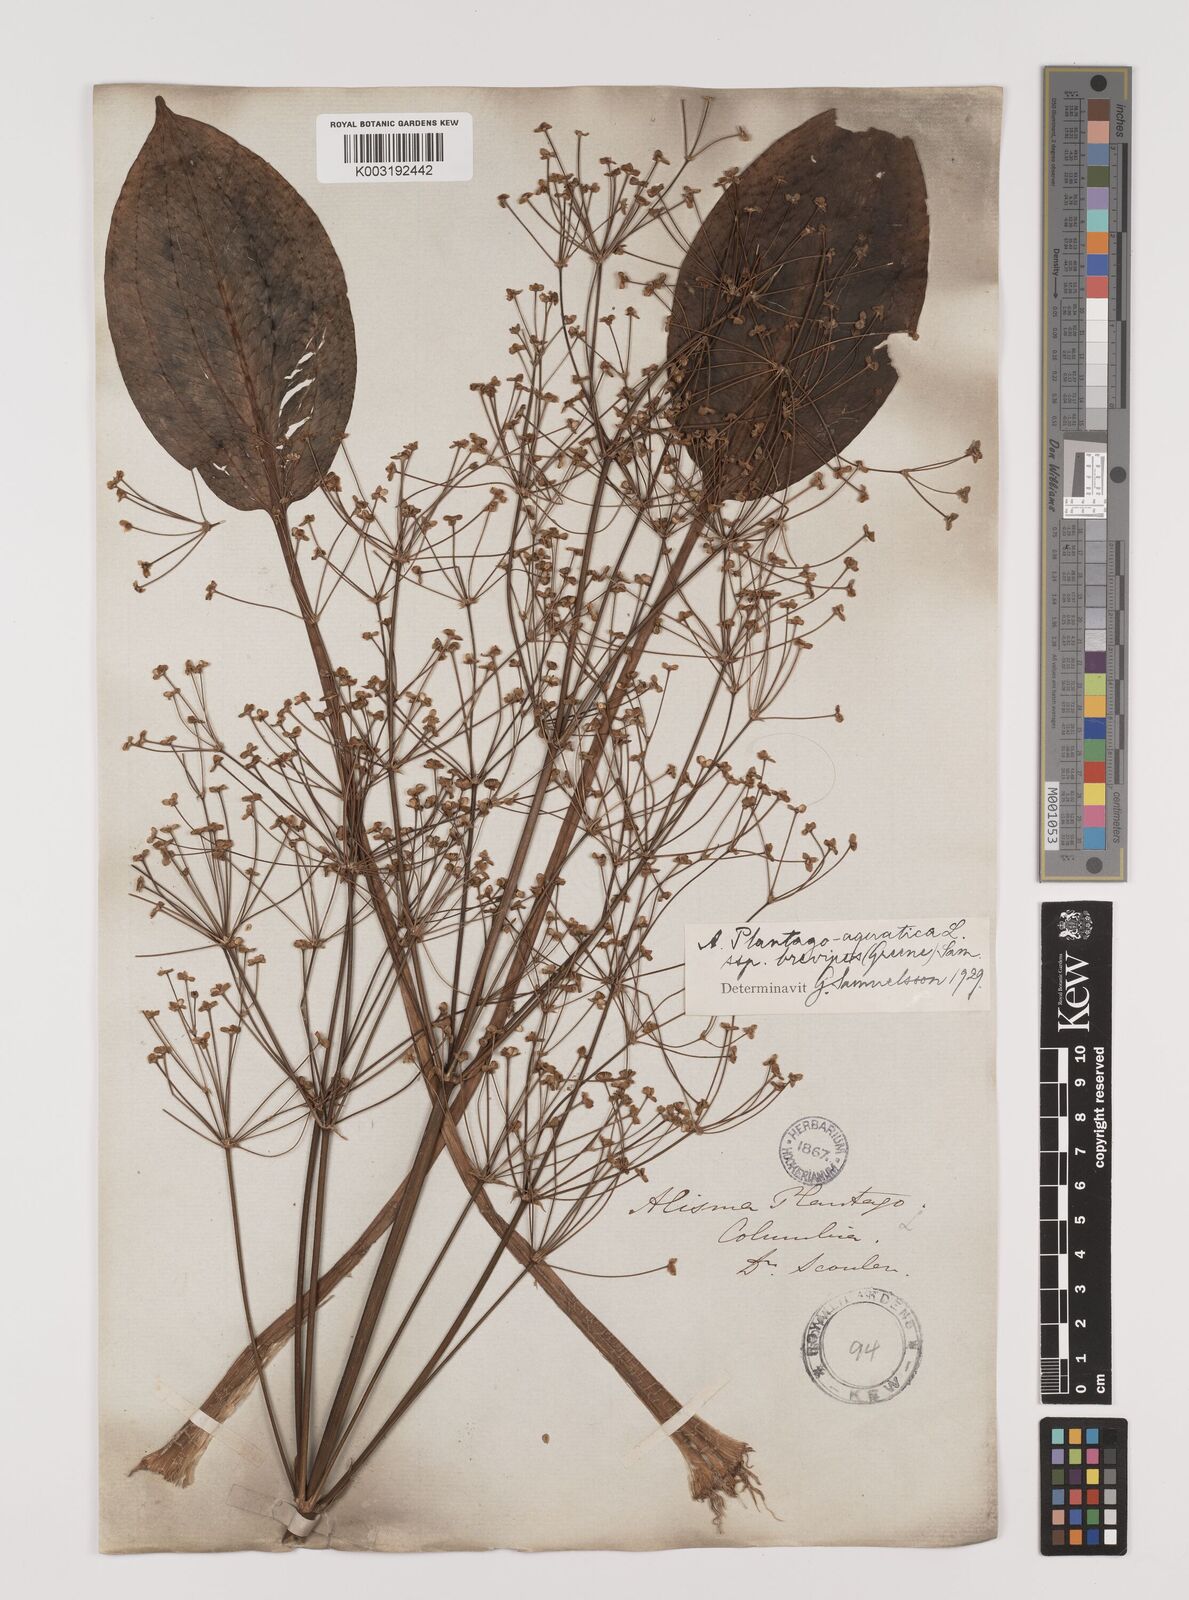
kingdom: Plantae
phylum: Tracheophyta
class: Liliopsida
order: Alismatales
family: Alismataceae
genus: Alisma
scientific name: Alisma triviale
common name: Northern water-plantain
